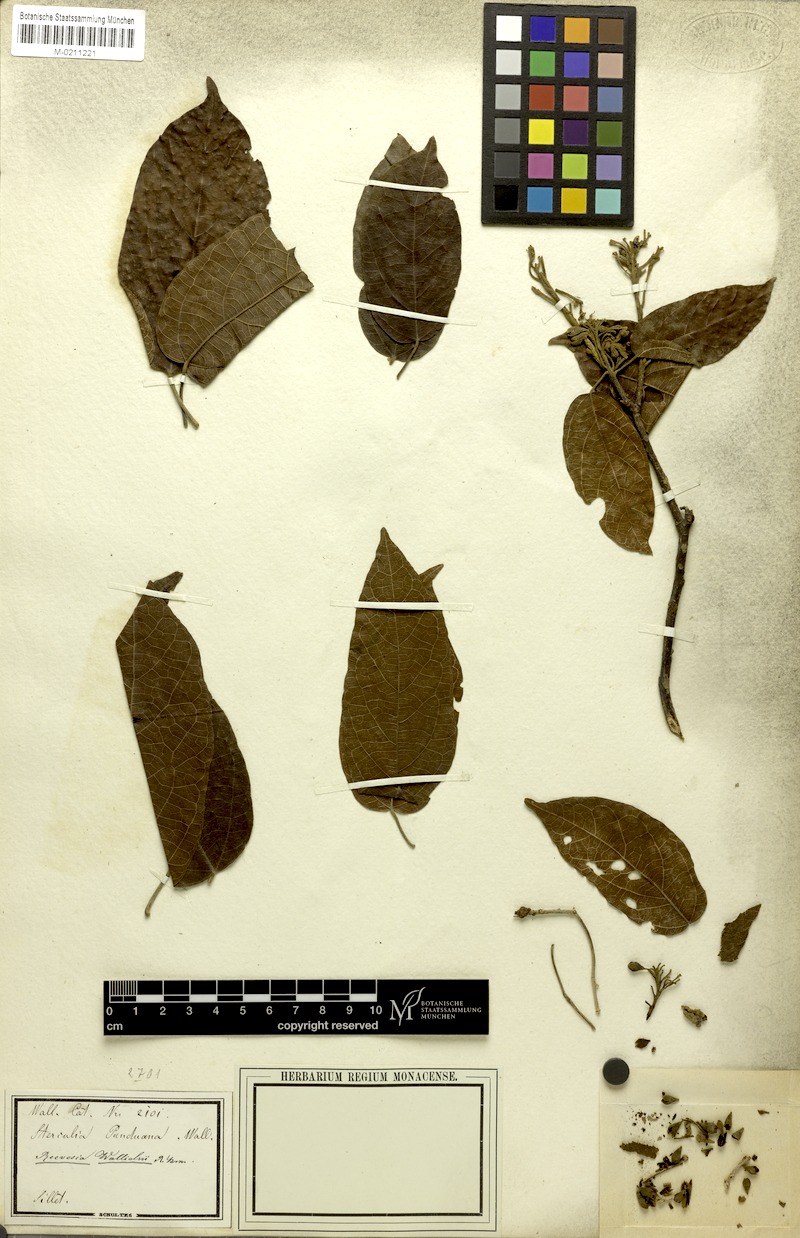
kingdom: Plantae
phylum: Tracheophyta
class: Magnoliopsida
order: Malvales
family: Malvaceae
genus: Reevesia
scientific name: Reevesia wallichii
